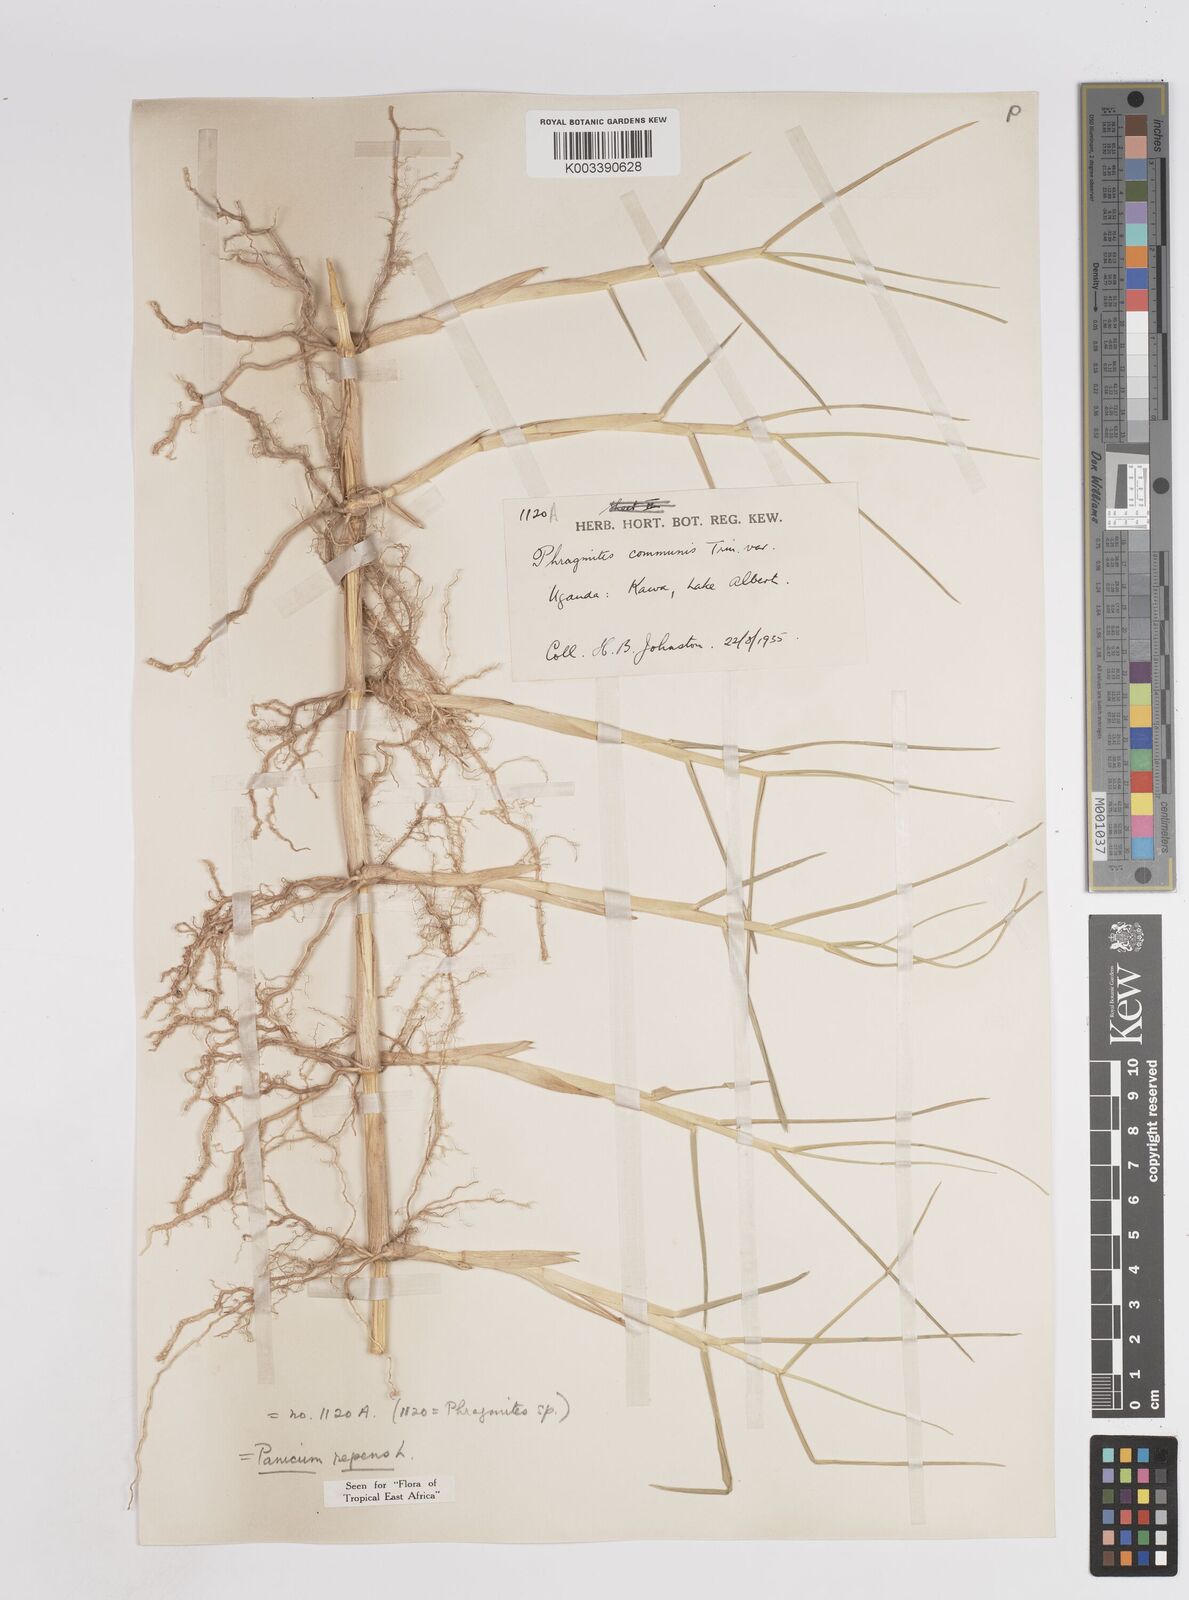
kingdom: Plantae
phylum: Tracheophyta
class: Liliopsida
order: Poales
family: Poaceae
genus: Panicum
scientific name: Panicum repens
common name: Torpedo grass
